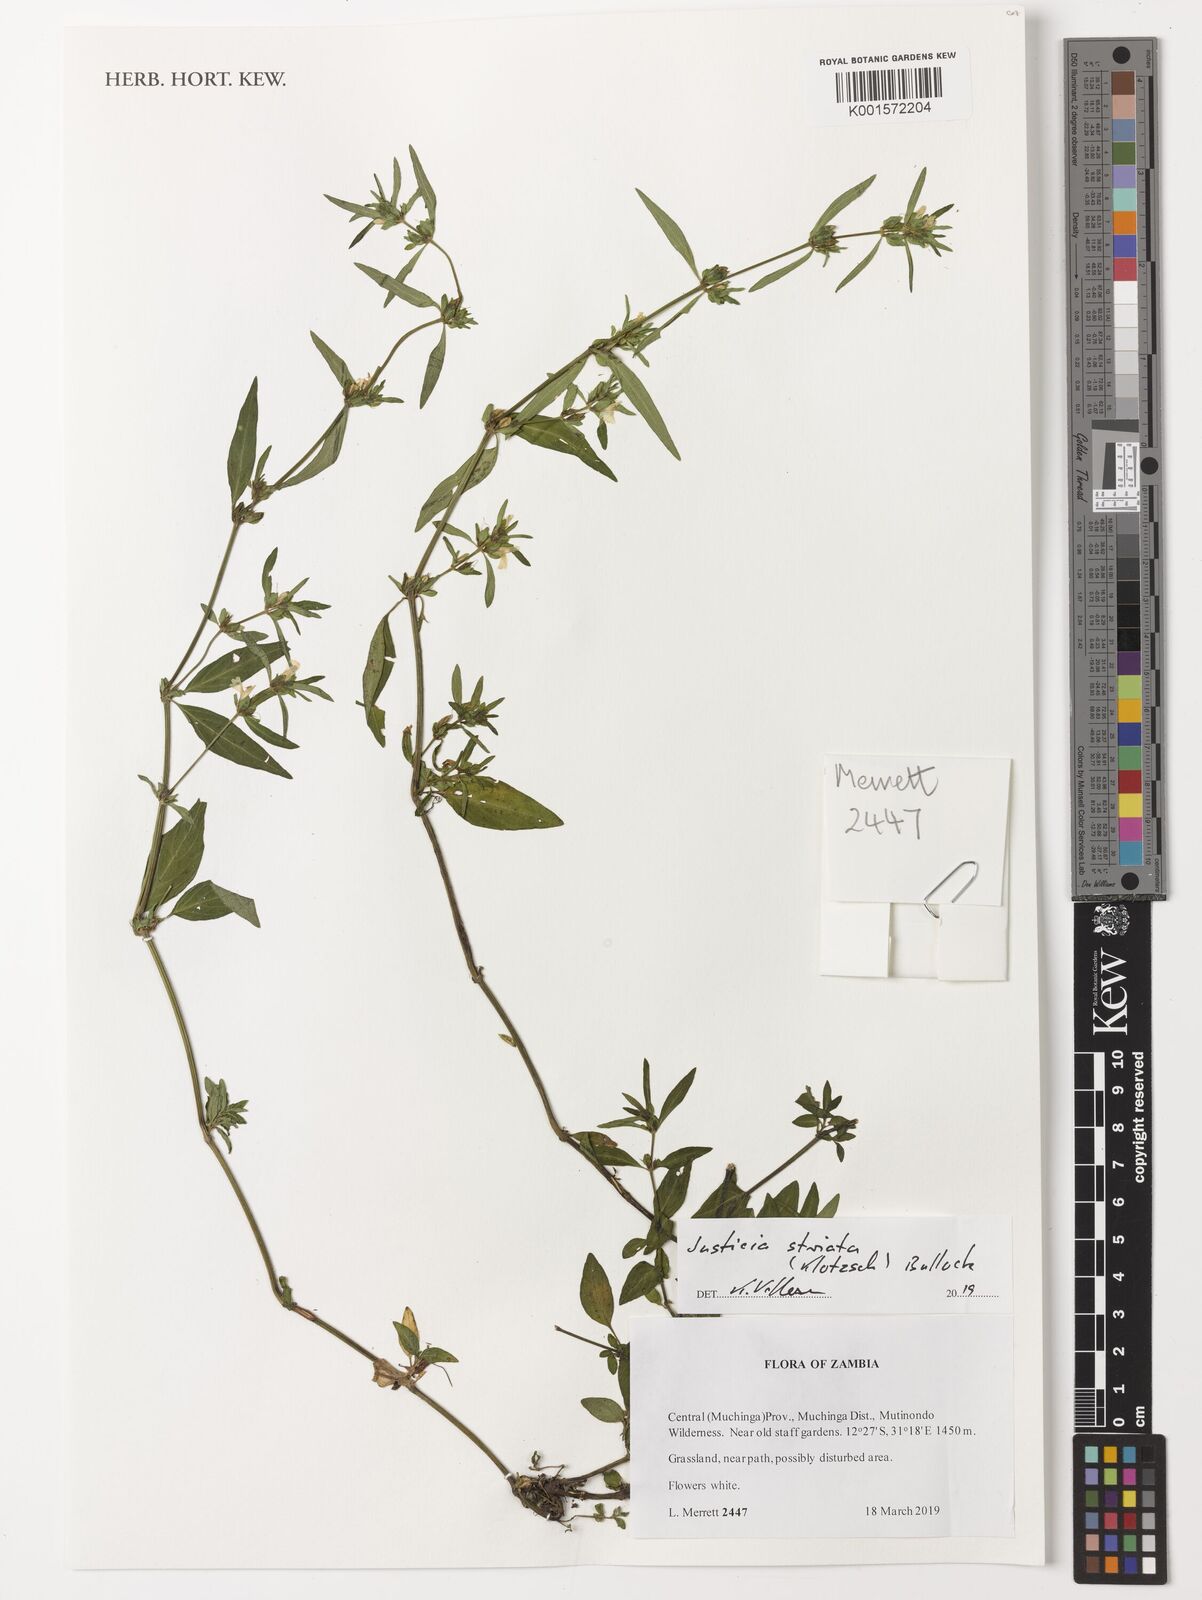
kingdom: Plantae
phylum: Tracheophyta
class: Magnoliopsida
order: Lamiales
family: Acanthaceae
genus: Justicia
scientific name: Justicia striata
